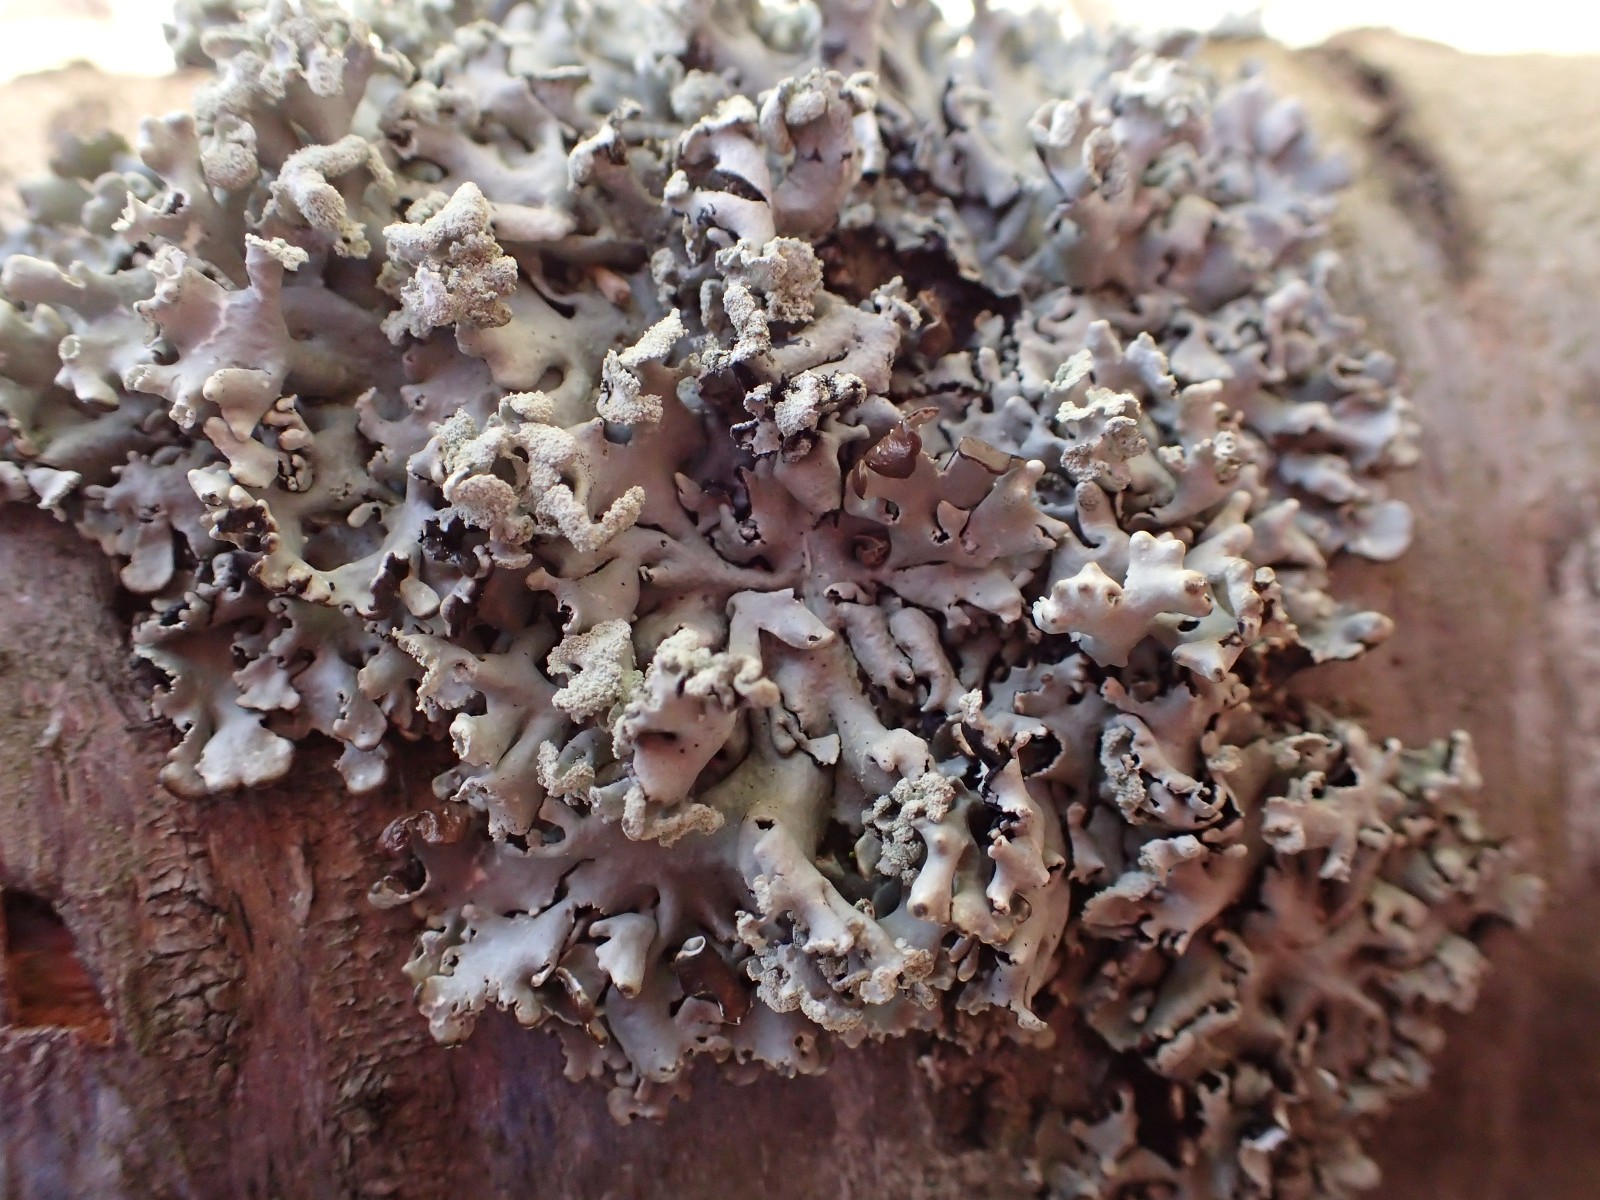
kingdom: Fungi
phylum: Ascomycota
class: Lecanoromycetes
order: Lecanorales
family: Parmeliaceae
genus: Hypogymnia
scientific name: Hypogymnia physodes
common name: almindelig kvistlav
